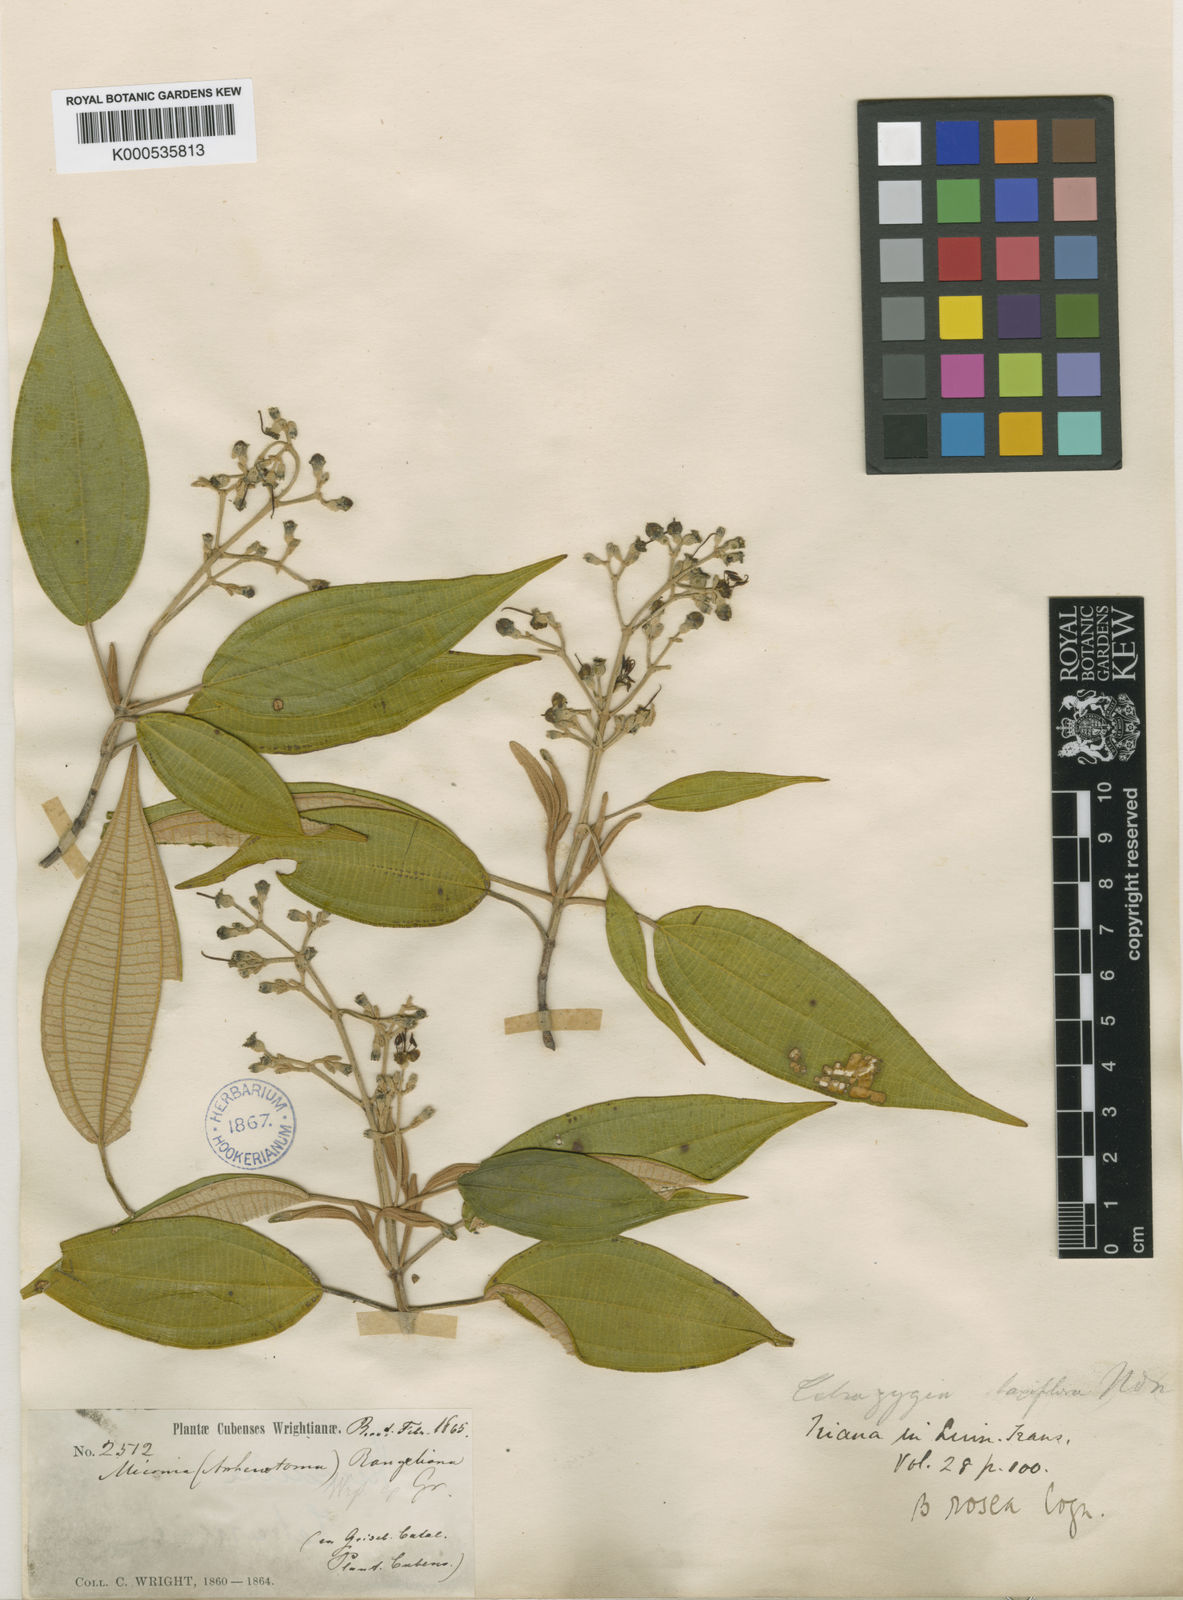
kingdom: Plantae
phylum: Tracheophyta
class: Magnoliopsida
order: Myrtales
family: Melastomataceae
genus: Miconia
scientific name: Miconia rangeliana
